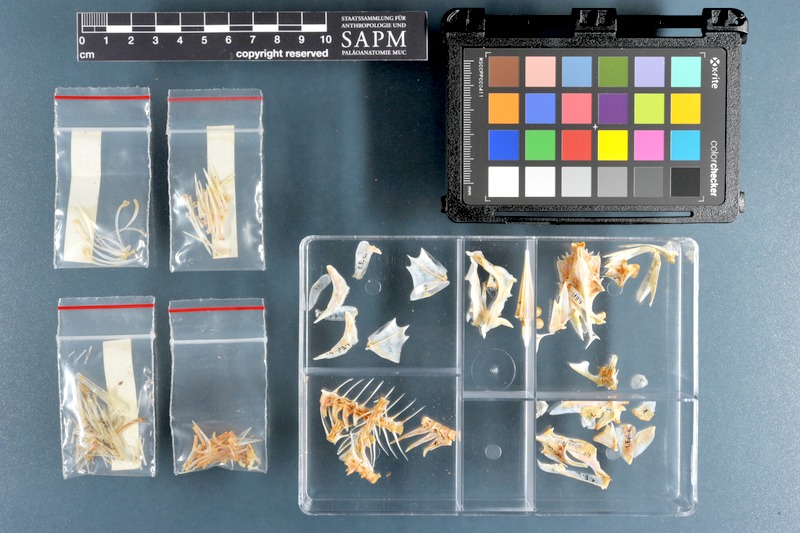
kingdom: Animalia
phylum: Chordata
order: Perciformes
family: Serranidae
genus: Epinephelus
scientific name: Epinephelus coeruleopunctatus
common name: Whitespotted grouper
